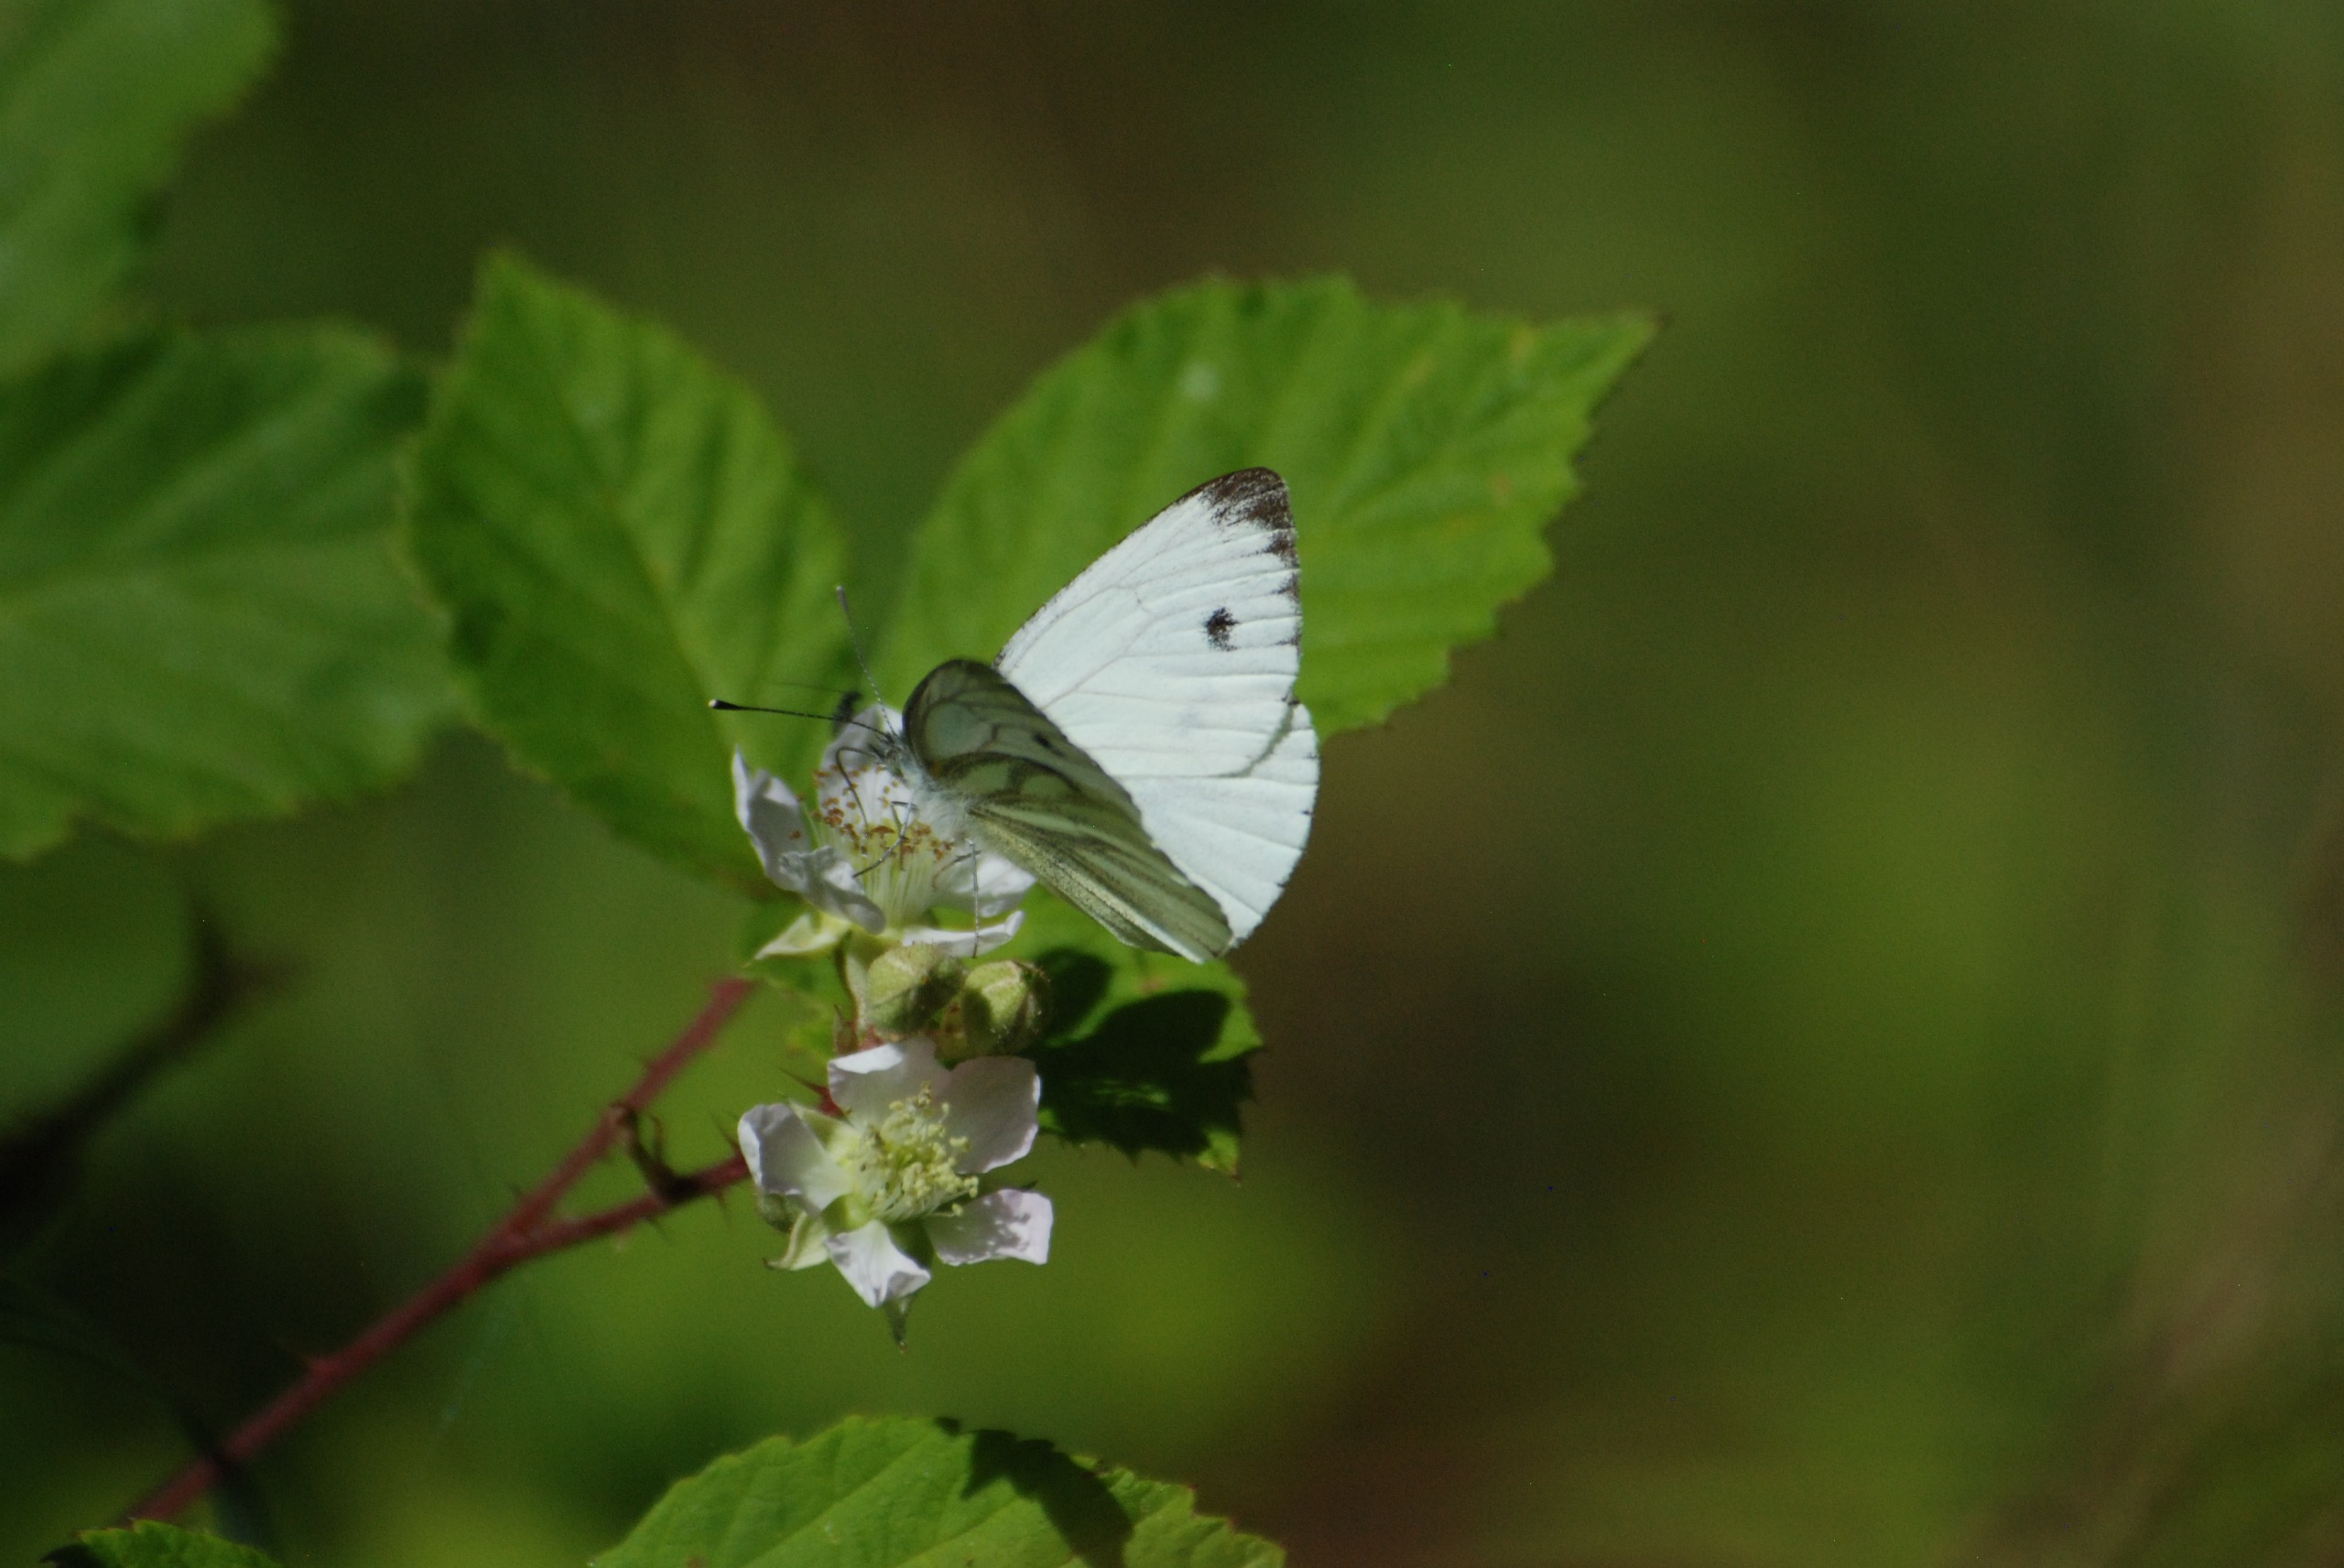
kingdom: Animalia
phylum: Arthropoda
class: Insecta
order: Lepidoptera
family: Pieridae
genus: Pieris
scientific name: Pieris napi
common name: Grønåret kålsommerfugl
